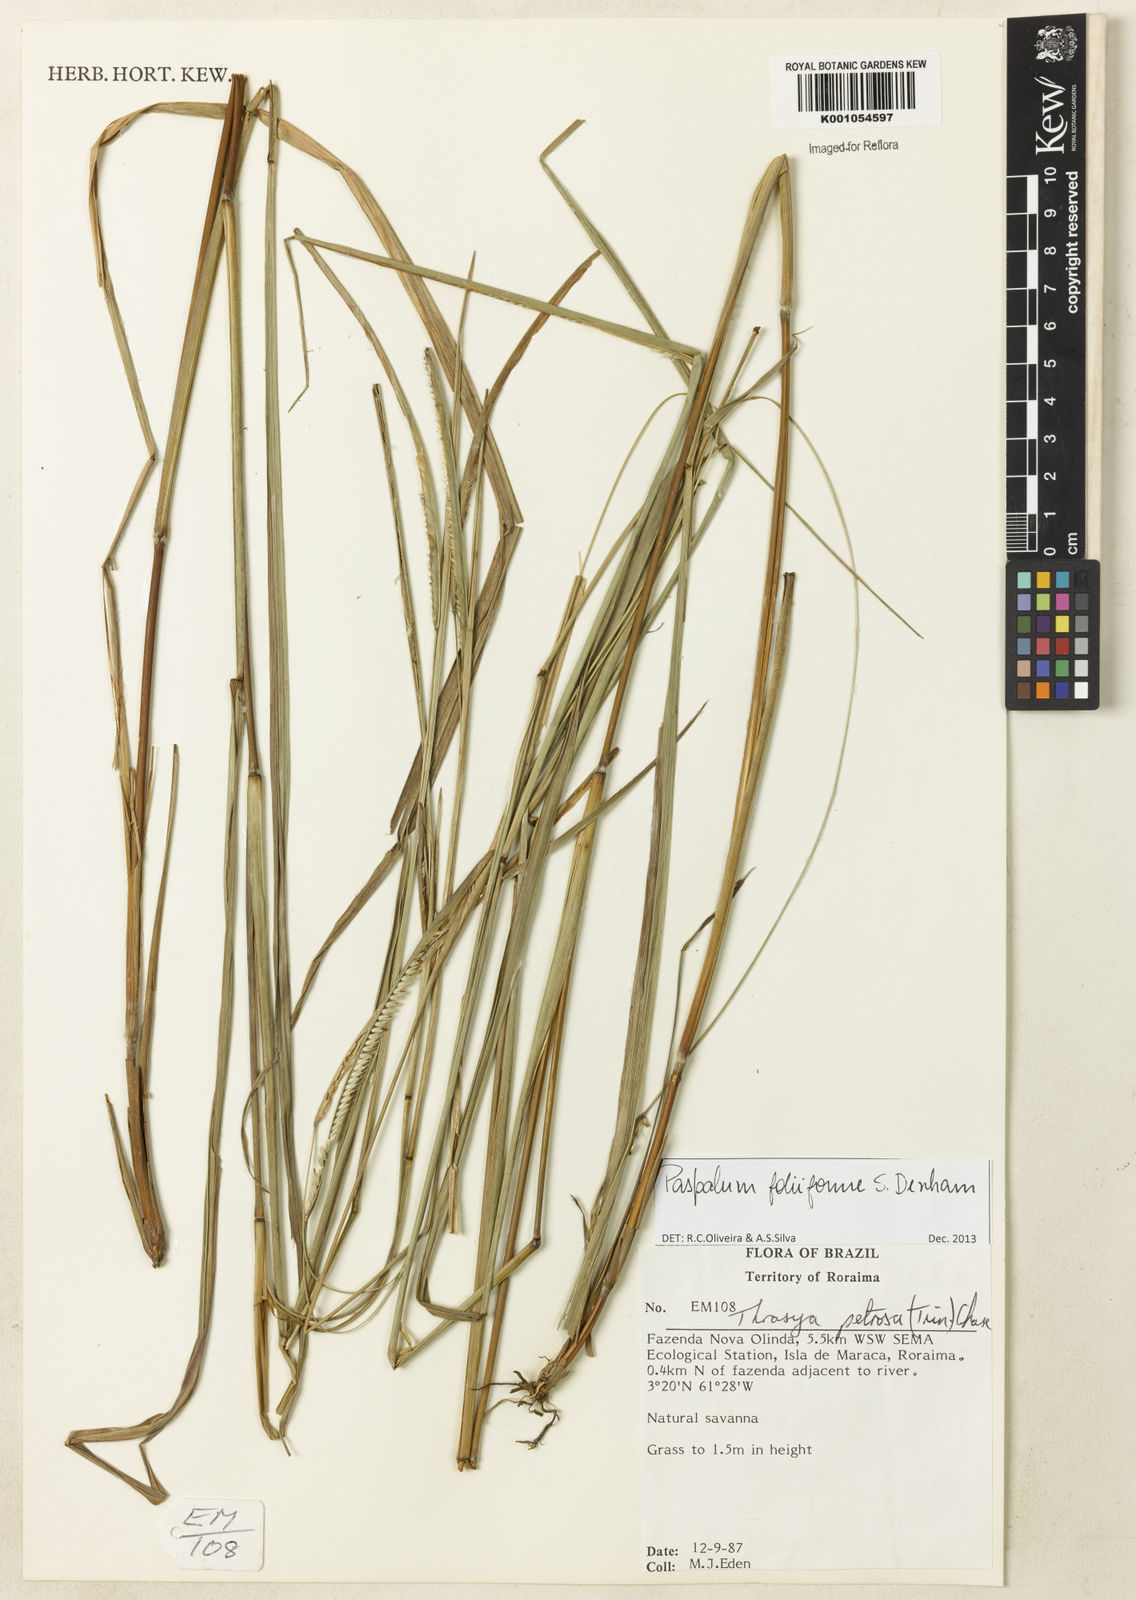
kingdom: Plantae
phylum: Tracheophyta
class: Liliopsida
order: Poales
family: Poaceae
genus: Paspalum
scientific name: Paspalum foliiforme
